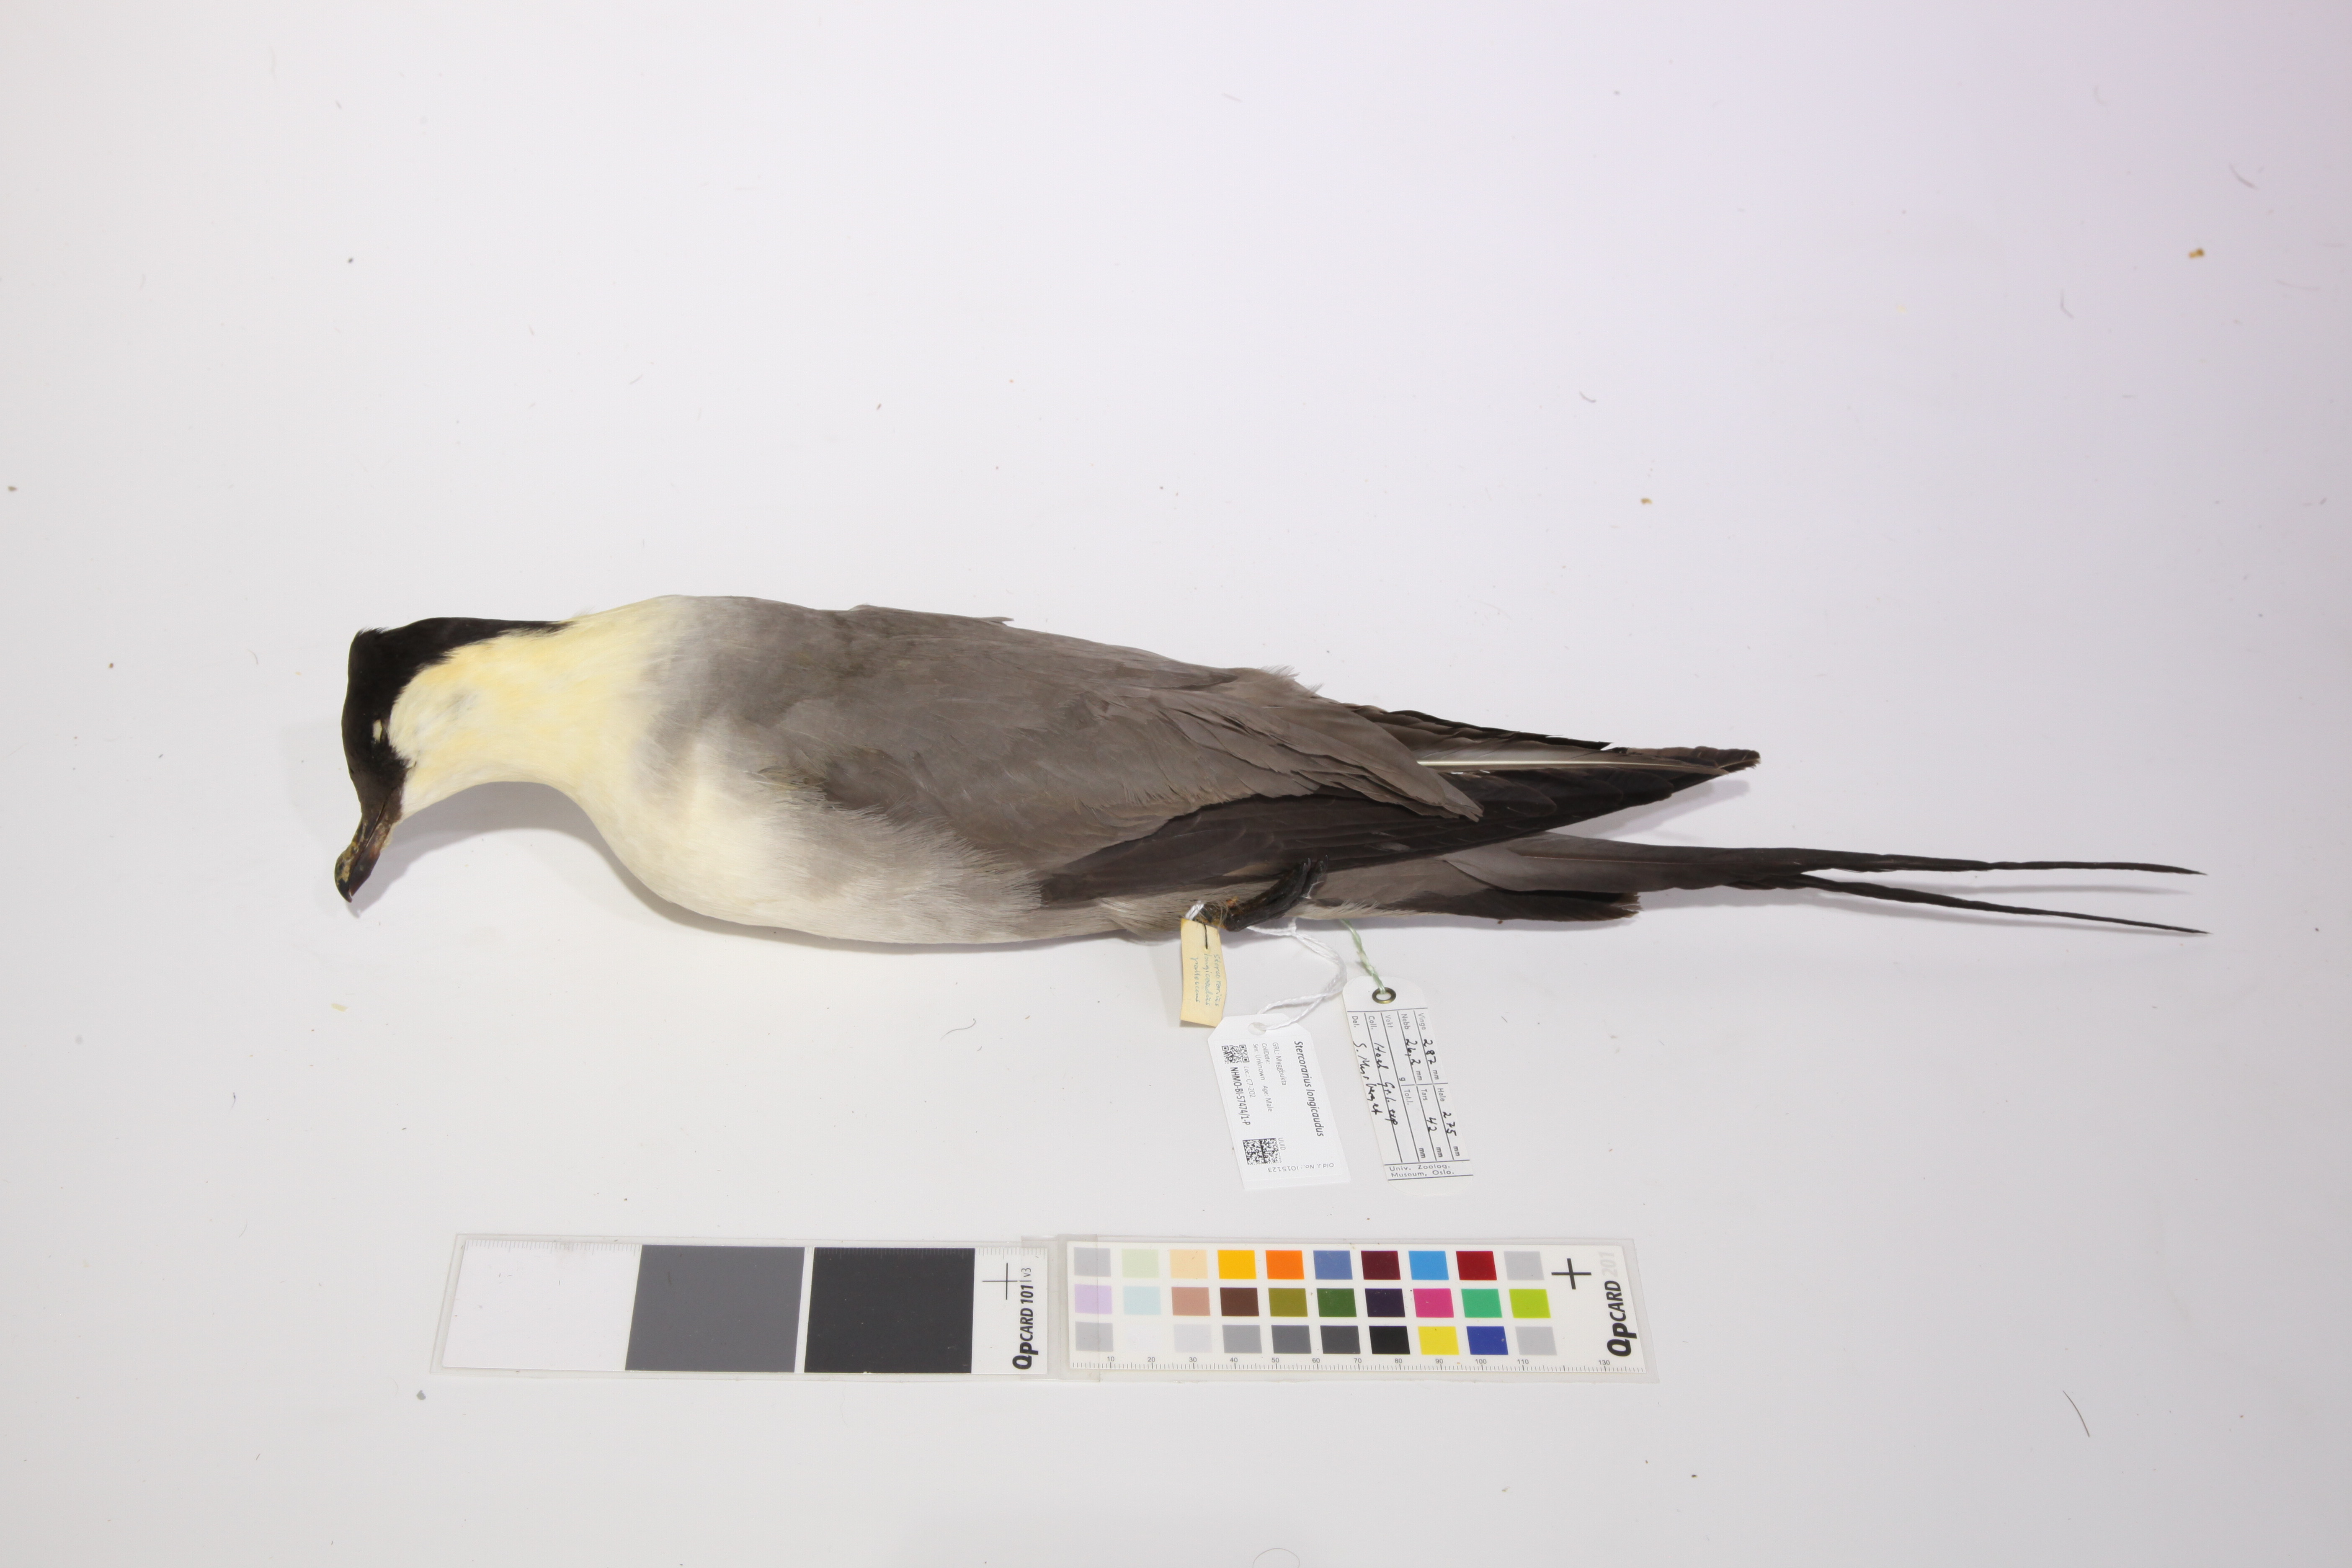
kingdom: Animalia
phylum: Chordata
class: Aves
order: Charadriiformes
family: Stercorariidae
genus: Stercorarius
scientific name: Stercorarius longicaudus
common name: Long-tailed jaeger
